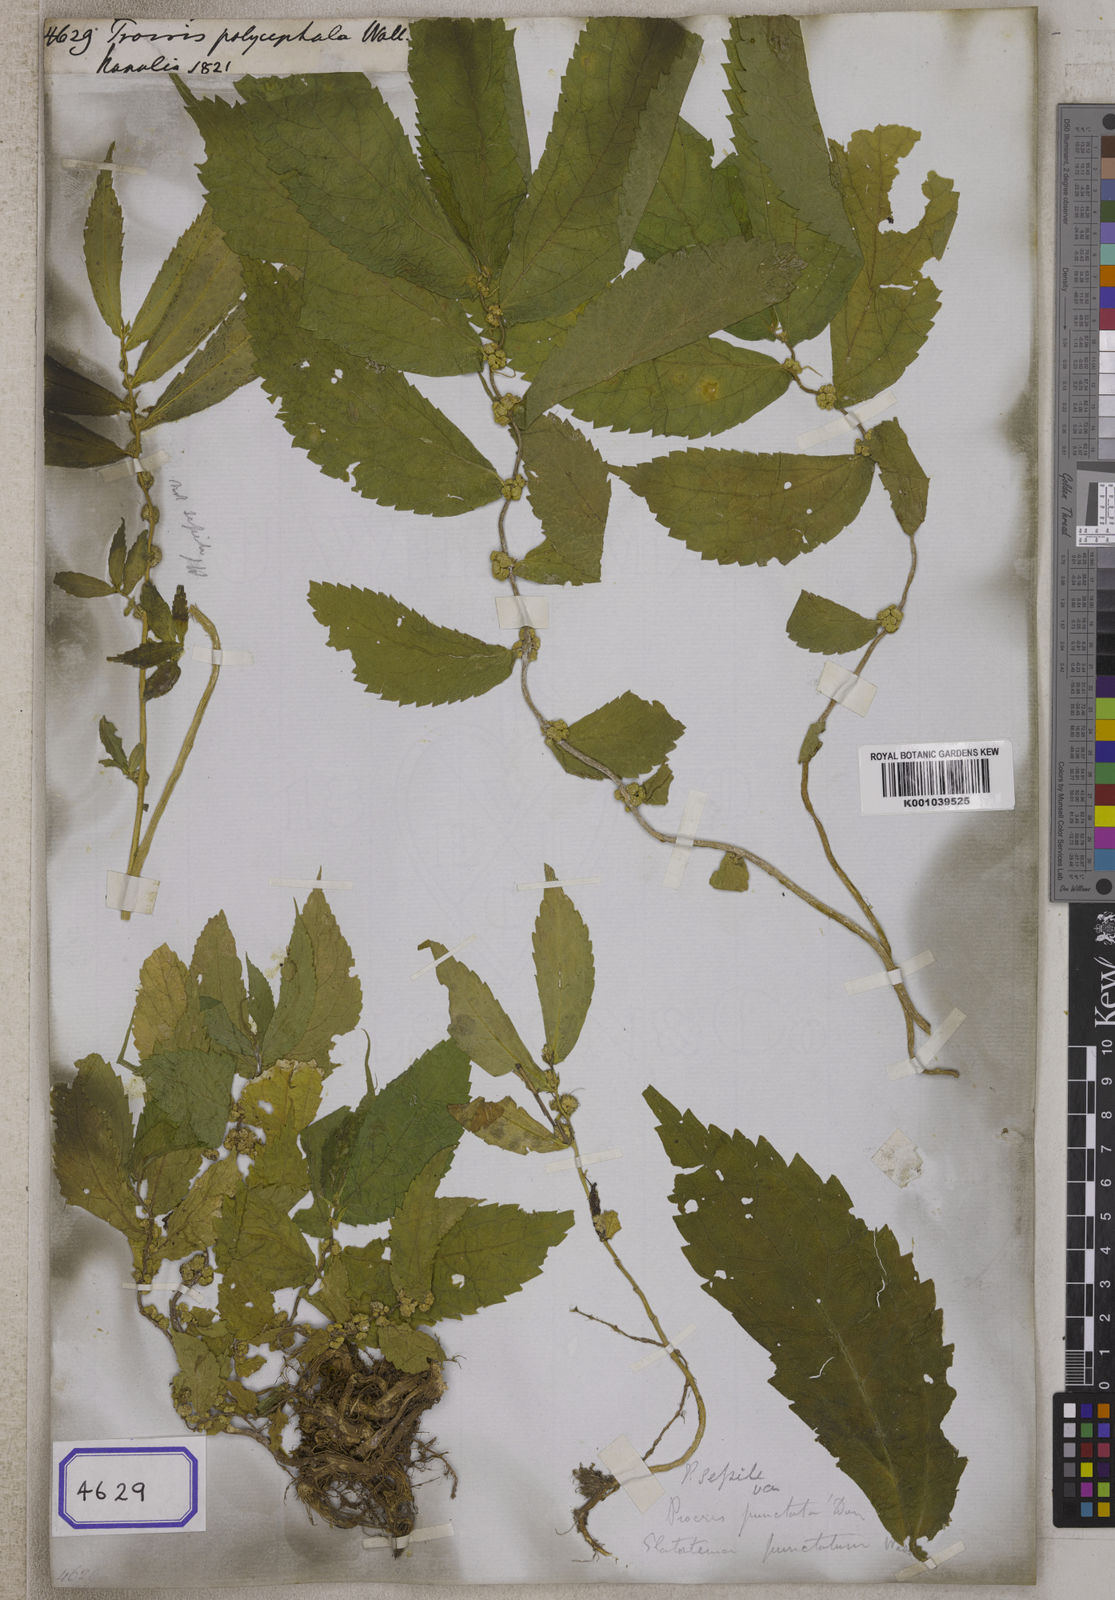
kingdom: Plantae
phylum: Tracheophyta
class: Magnoliopsida
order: Rosales
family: Urticaceae
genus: Elatostema
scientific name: Elatostema cuspidatum
